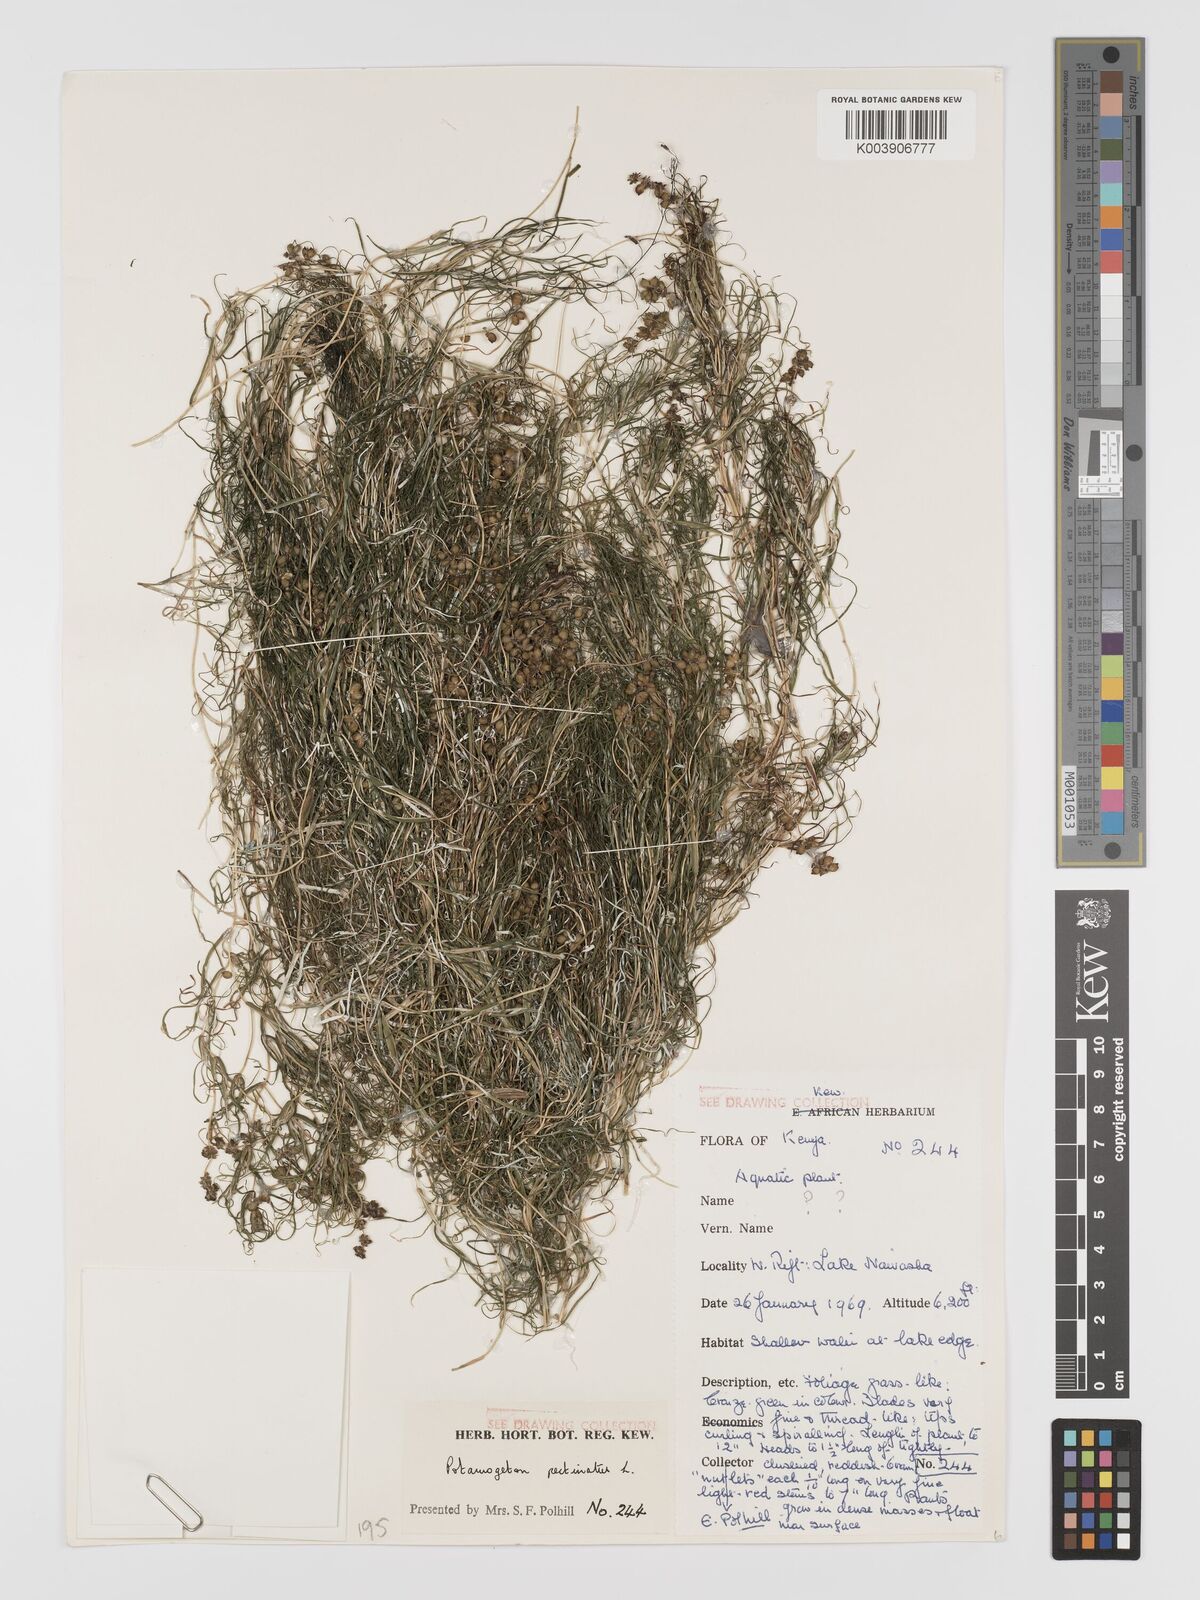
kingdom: Plantae
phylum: Tracheophyta
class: Liliopsida
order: Alismatales
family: Potamogetonaceae
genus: Stuckenia
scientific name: Stuckenia pectinata
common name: Sago pondweed
